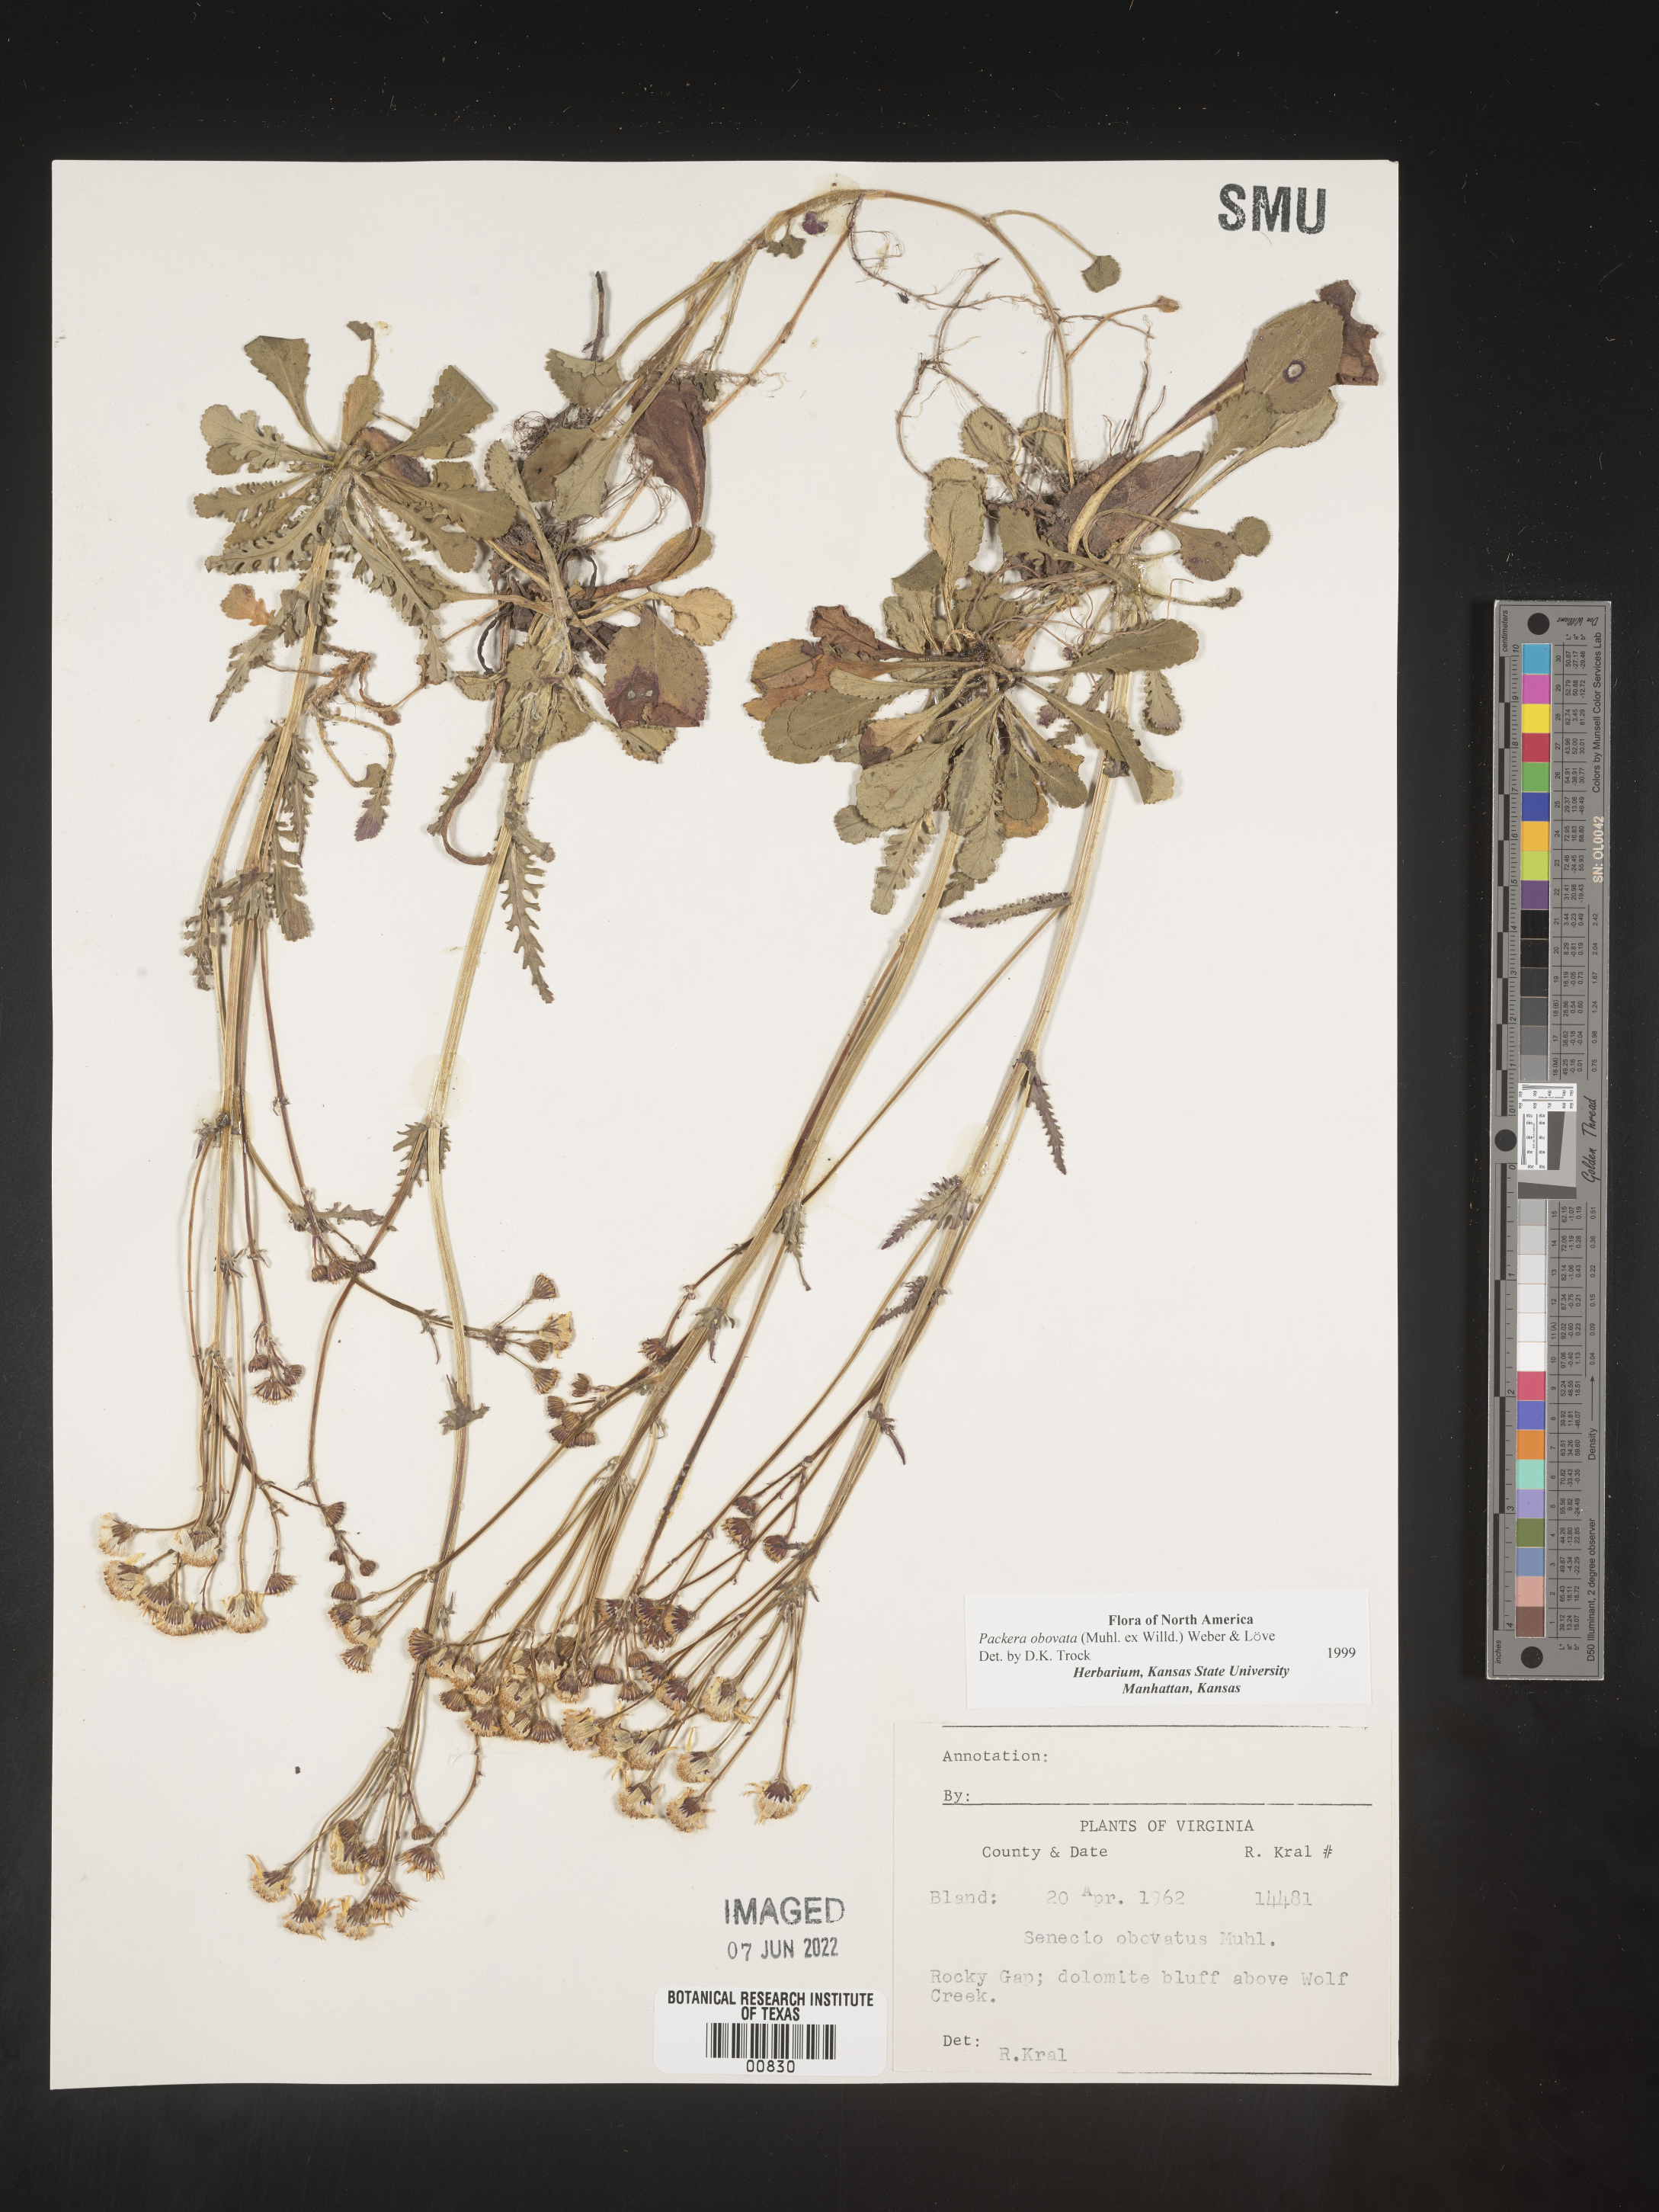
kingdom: Plantae
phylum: Tracheophyta
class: Magnoliopsida
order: Asterales
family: Asteraceae
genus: Packera
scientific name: Packera obovata
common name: Round-leaf ragwort
